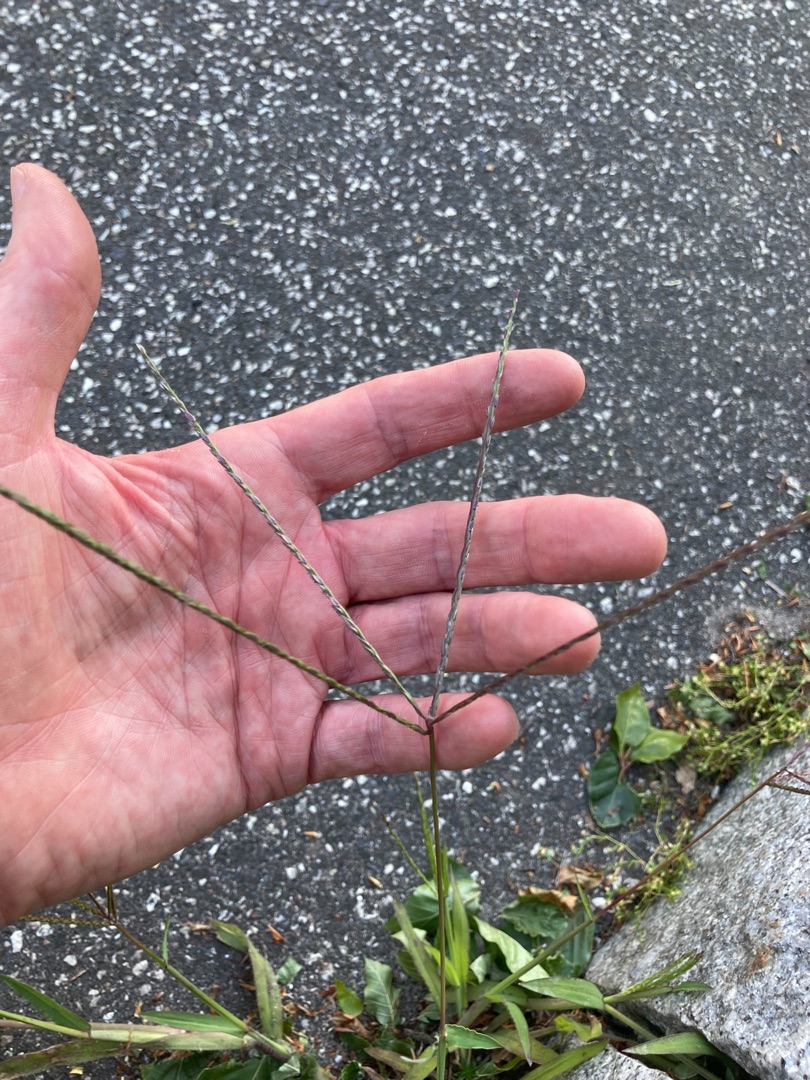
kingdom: Plantae
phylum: Tracheophyta
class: Liliopsida
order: Poales
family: Poaceae
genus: Digitaria
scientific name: Digitaria sanguinalis
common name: Blodhirse
